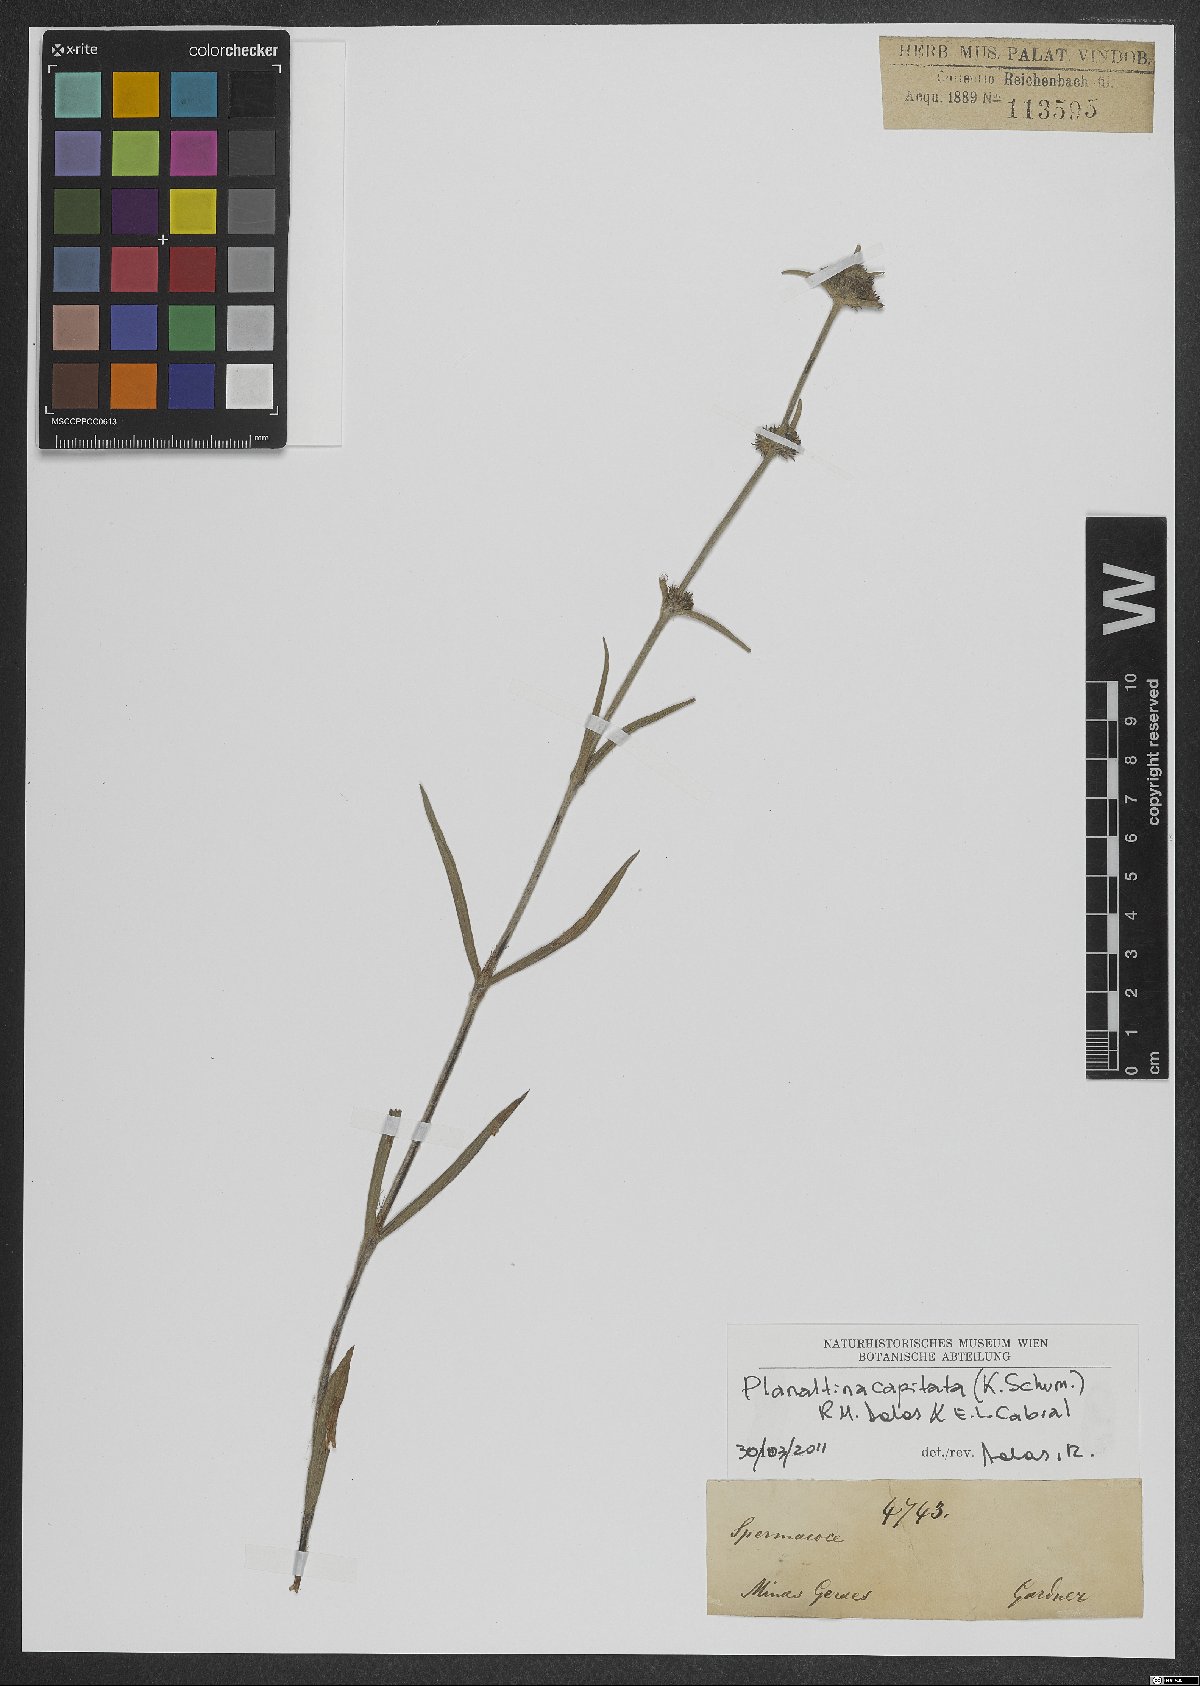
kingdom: Plantae
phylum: Tracheophyta
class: Magnoliopsida
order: Gentianales
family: Rubiaceae
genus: Planaltina
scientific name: Planaltina capitata
